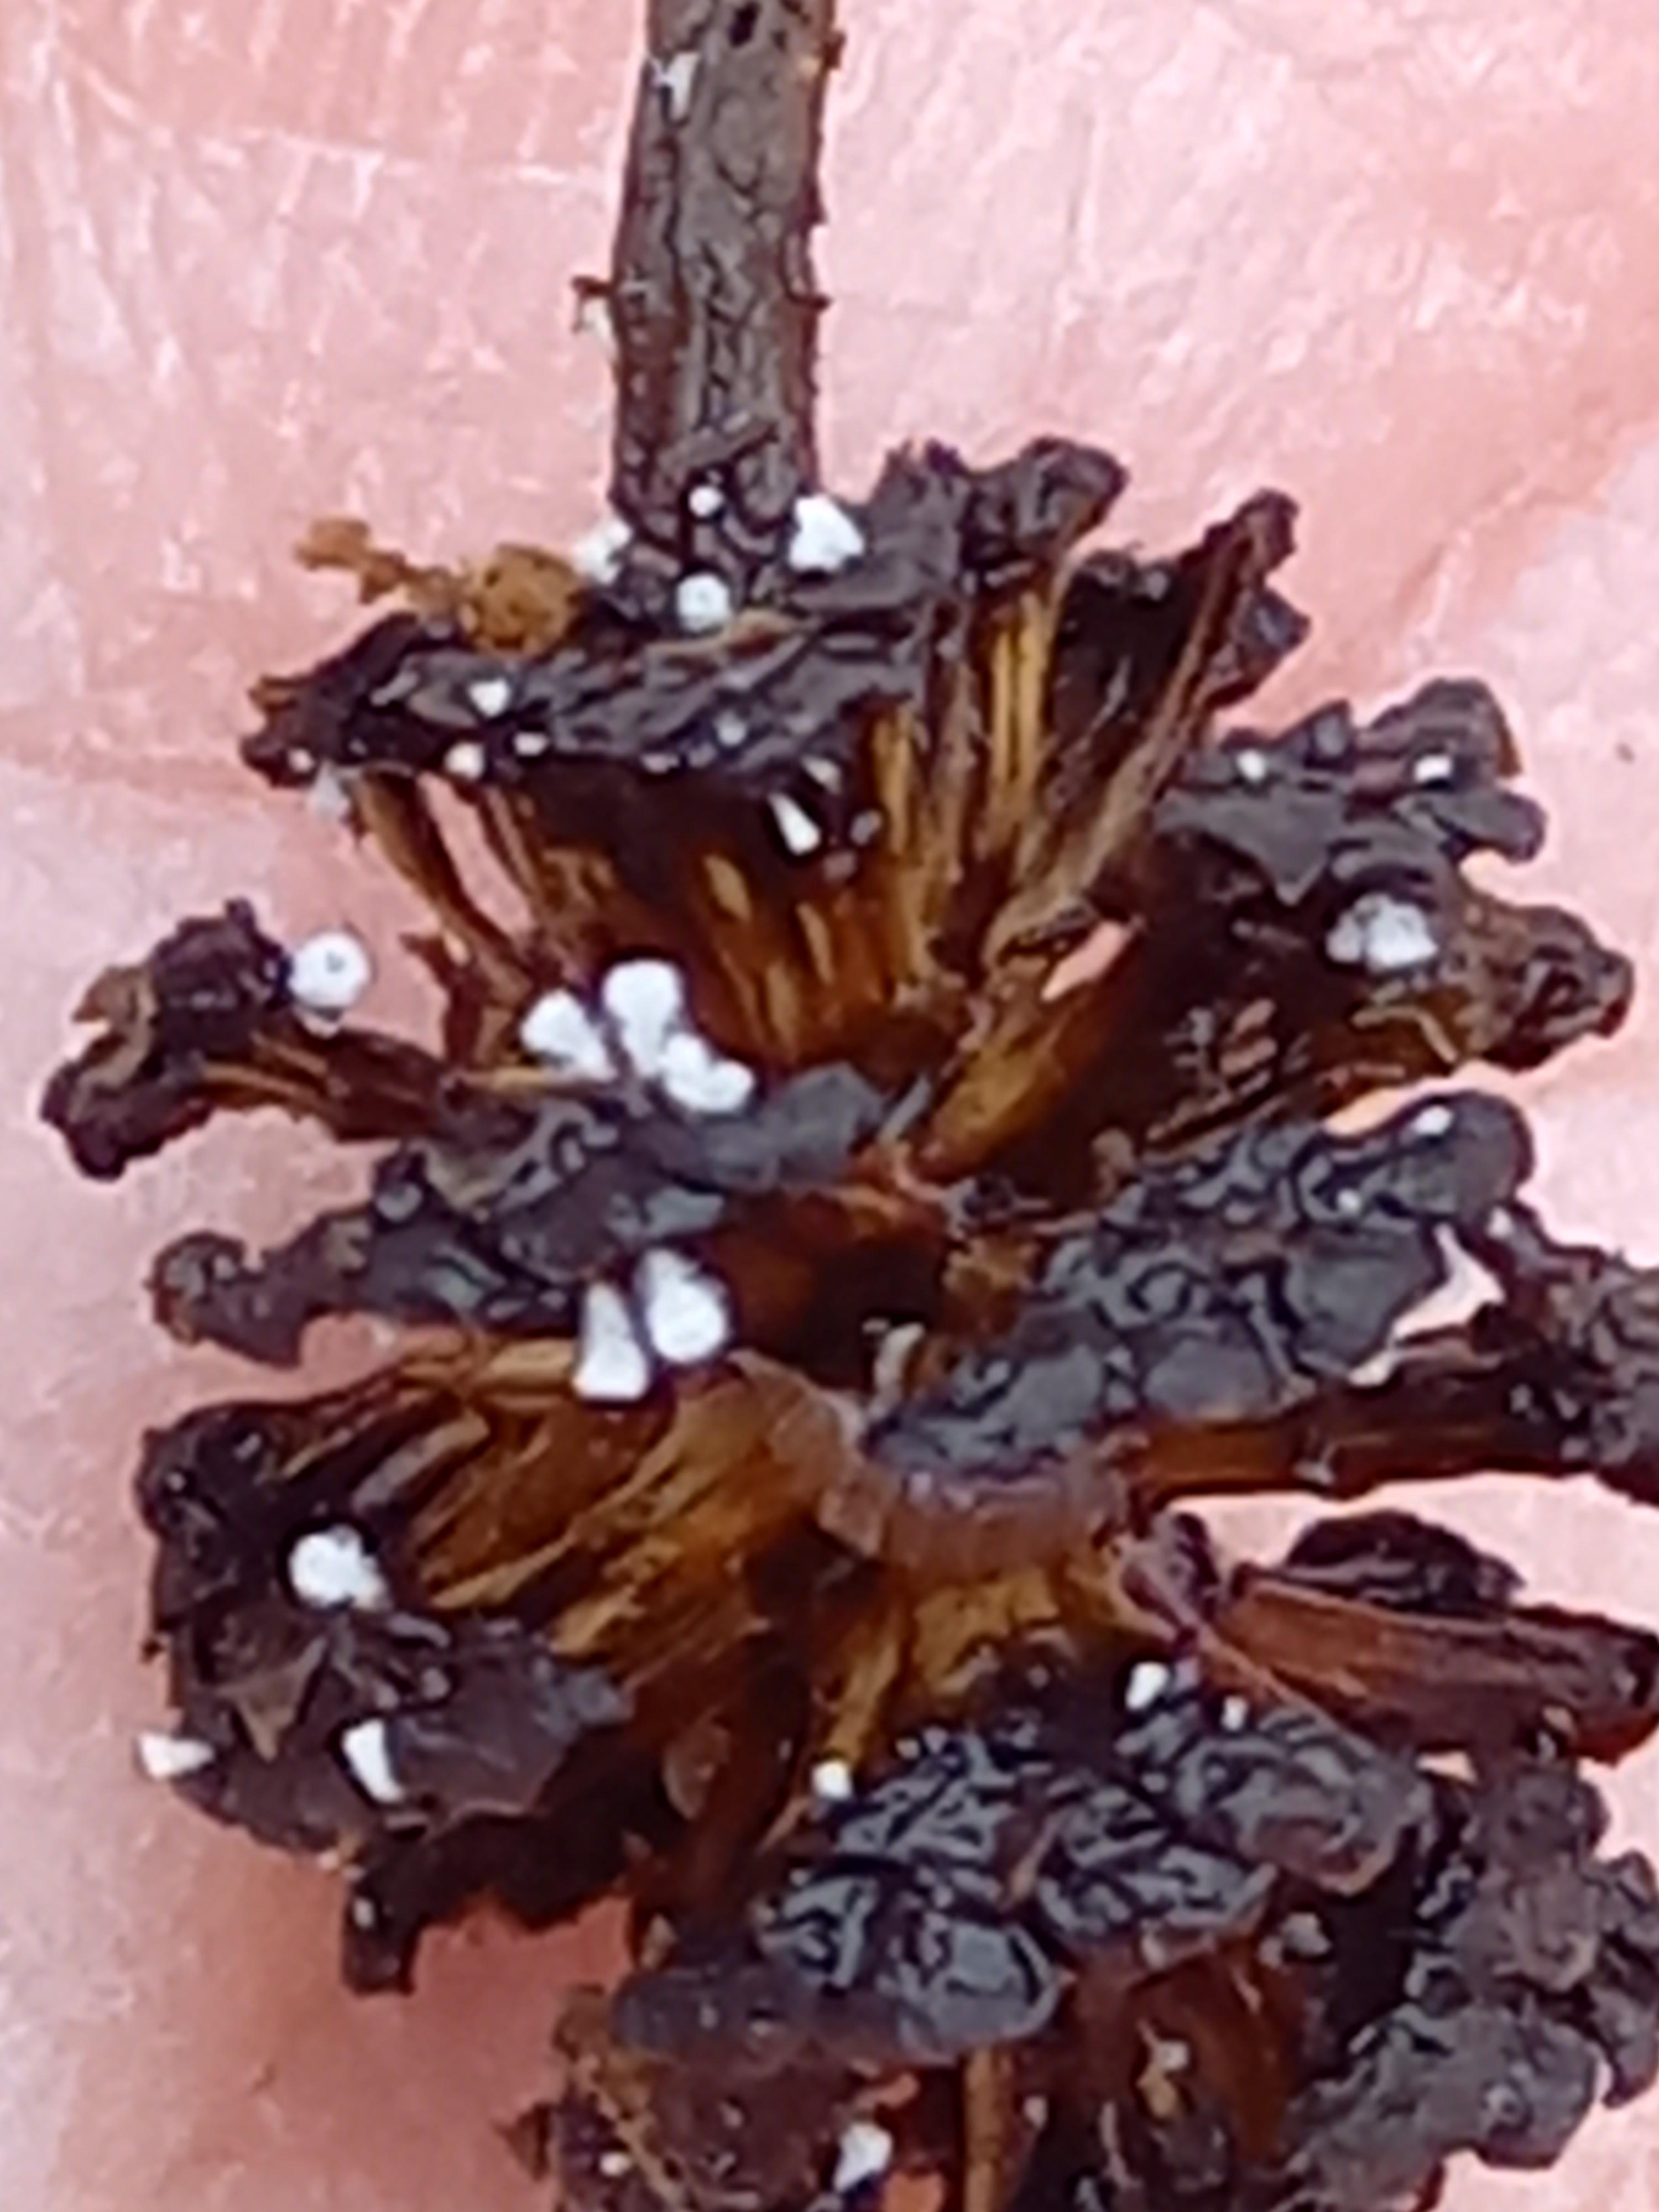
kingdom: Fungi
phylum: Ascomycota
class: Leotiomycetes
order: Helotiales
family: Lachnaceae
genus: Lachnum
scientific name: Lachnum virgineum
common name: jomfru-frynseskive
